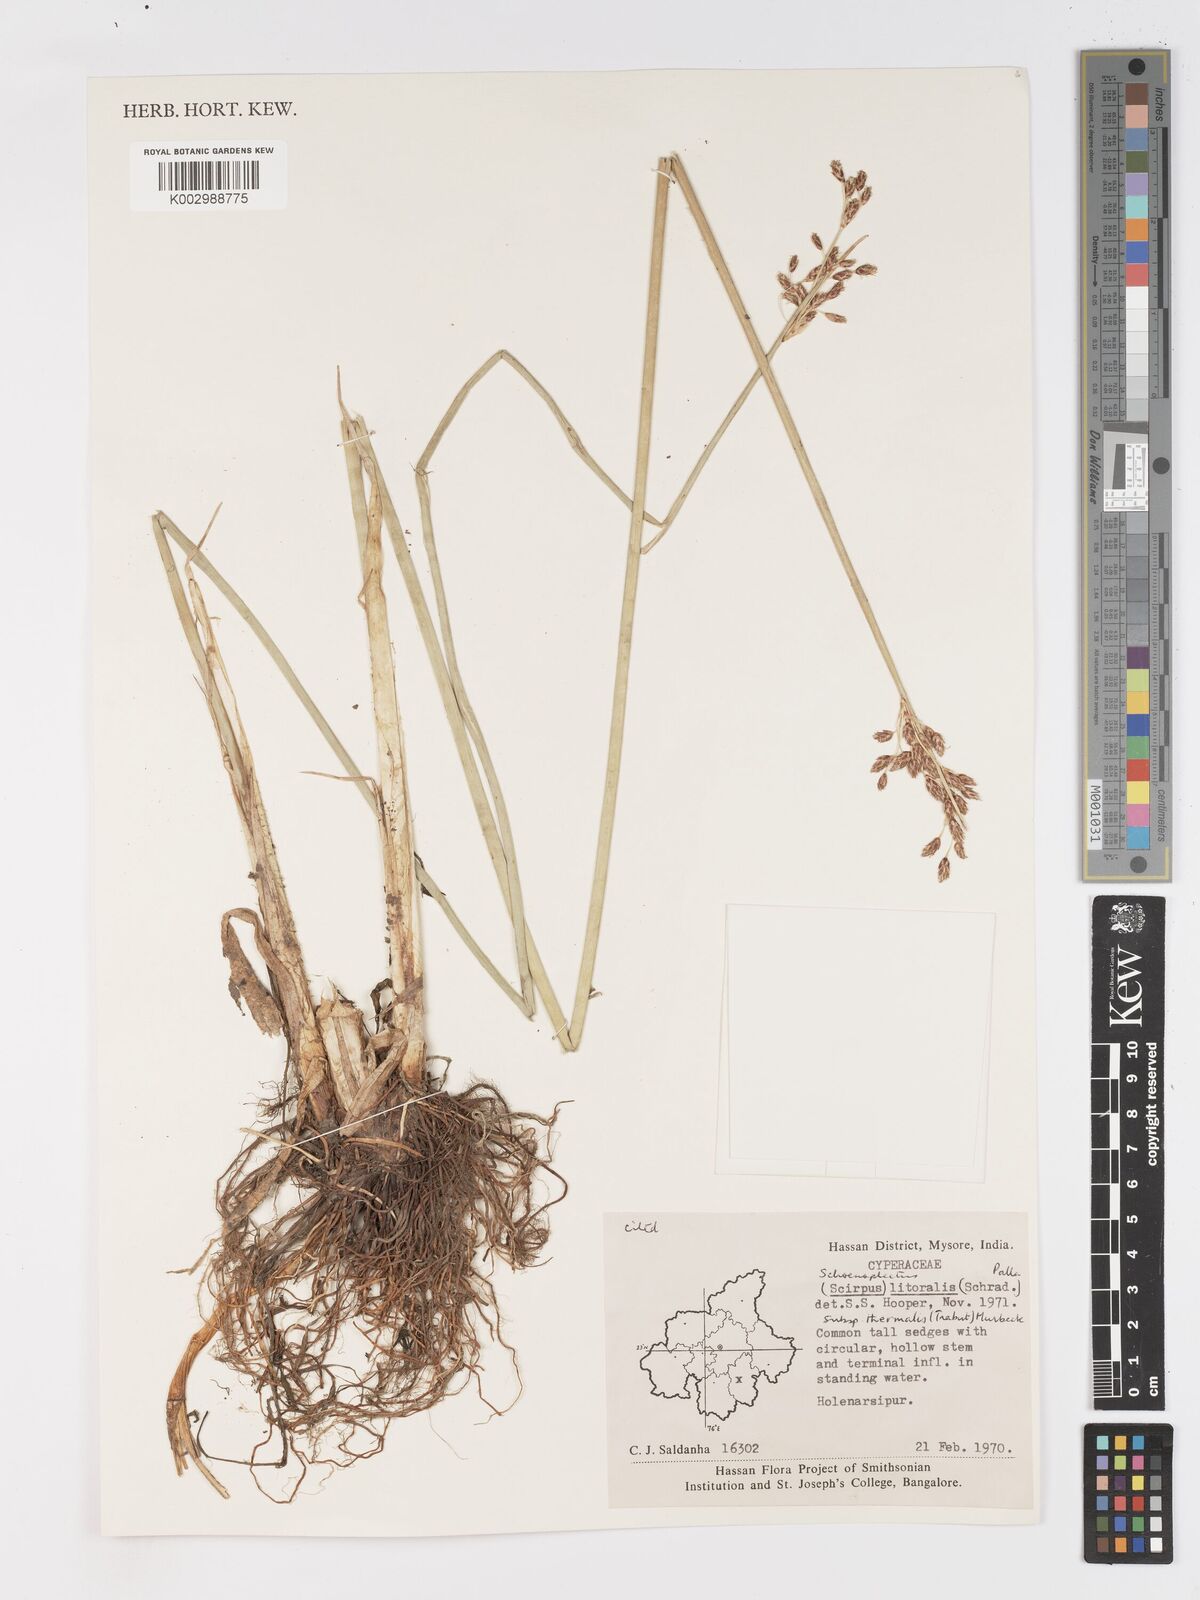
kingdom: Plantae
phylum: Tracheophyta
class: Liliopsida
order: Poales
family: Cyperaceae
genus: Schoenoplectus
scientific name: Schoenoplectus litoralis
